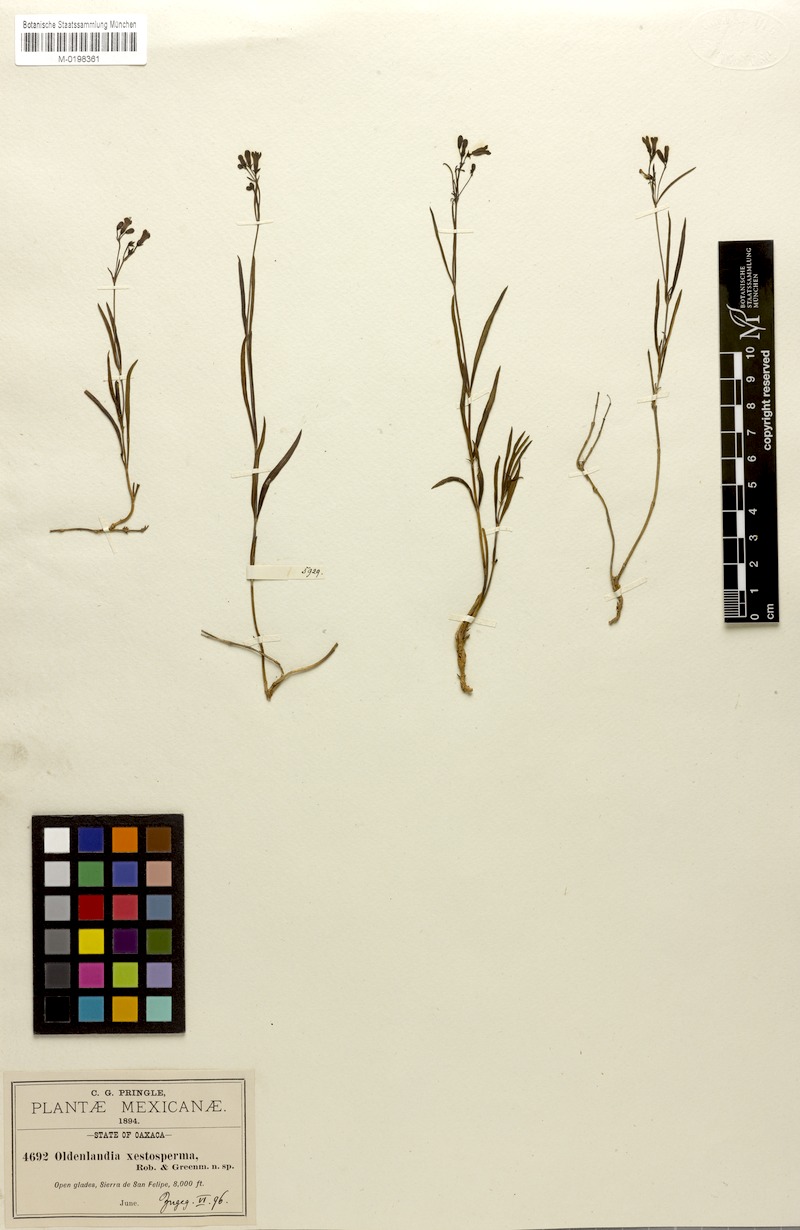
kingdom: Plantae
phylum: Tracheophyta
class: Magnoliopsida
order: Gentianales
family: Rubiaceae
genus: Bouvardia
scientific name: Bouvardia xestosperma
